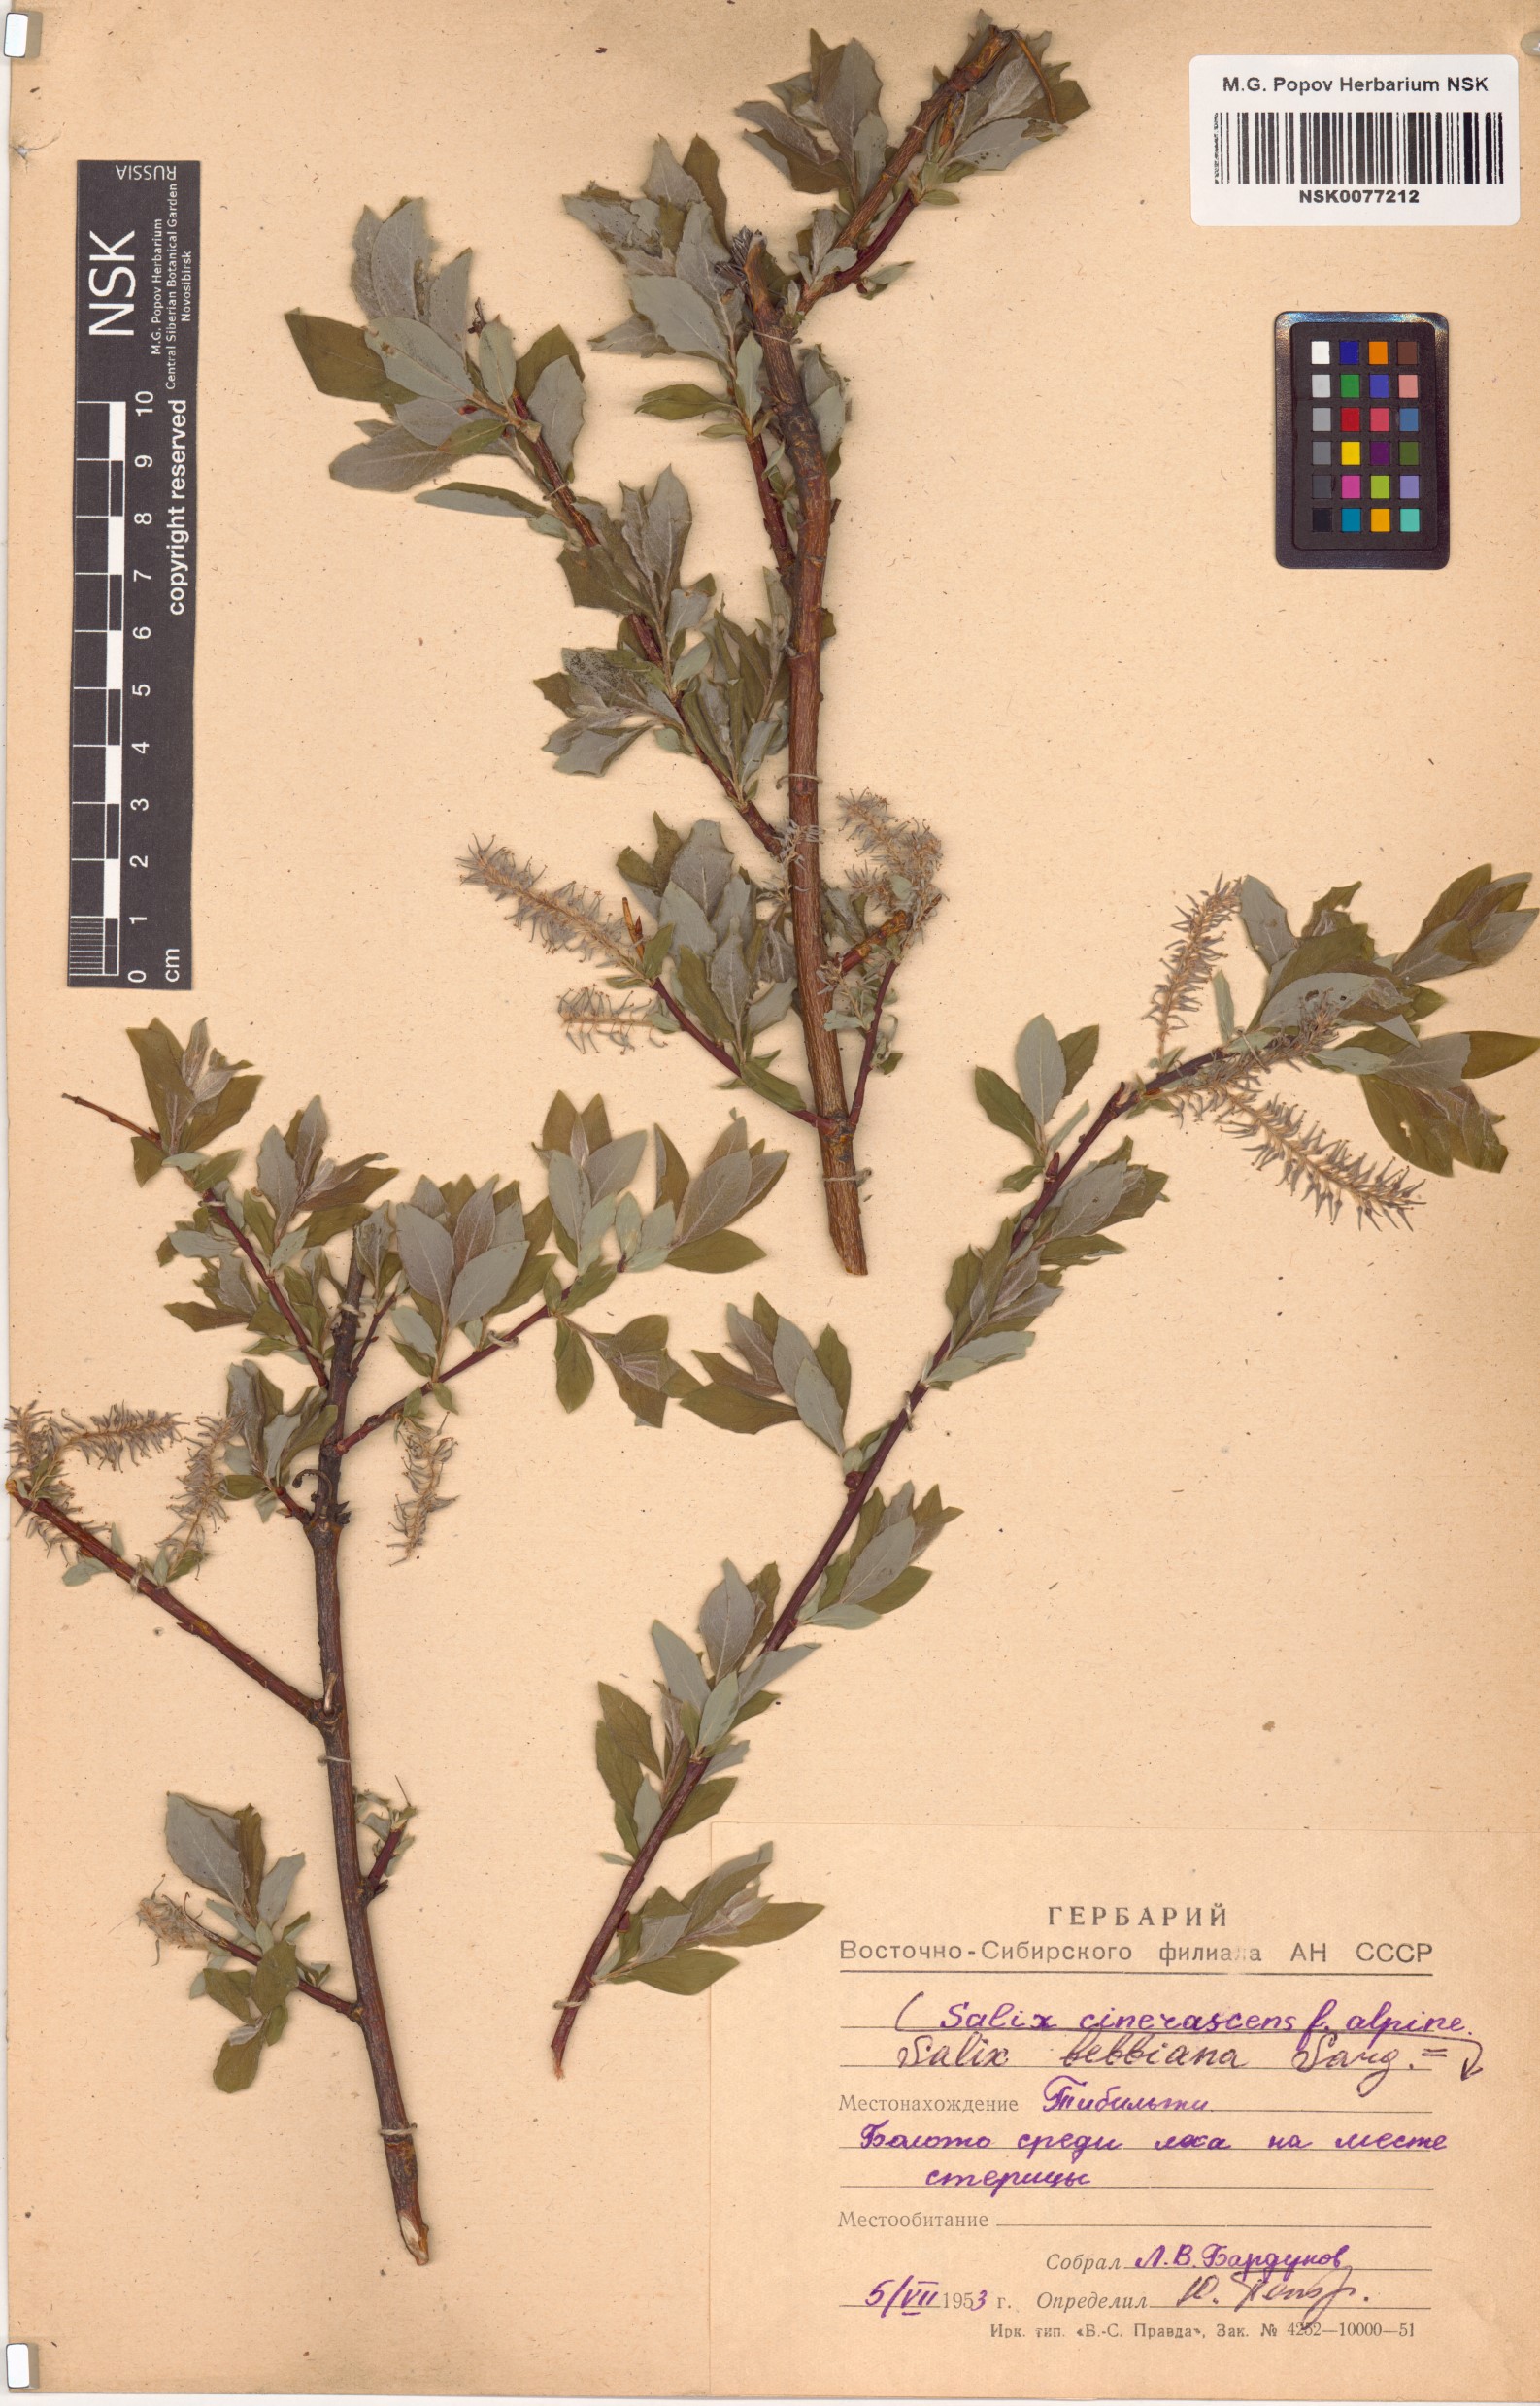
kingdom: Plantae
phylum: Tracheophyta
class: Magnoliopsida
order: Malpighiales
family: Salicaceae
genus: Salix
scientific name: Salix bebbiana
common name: Bebb's willow
